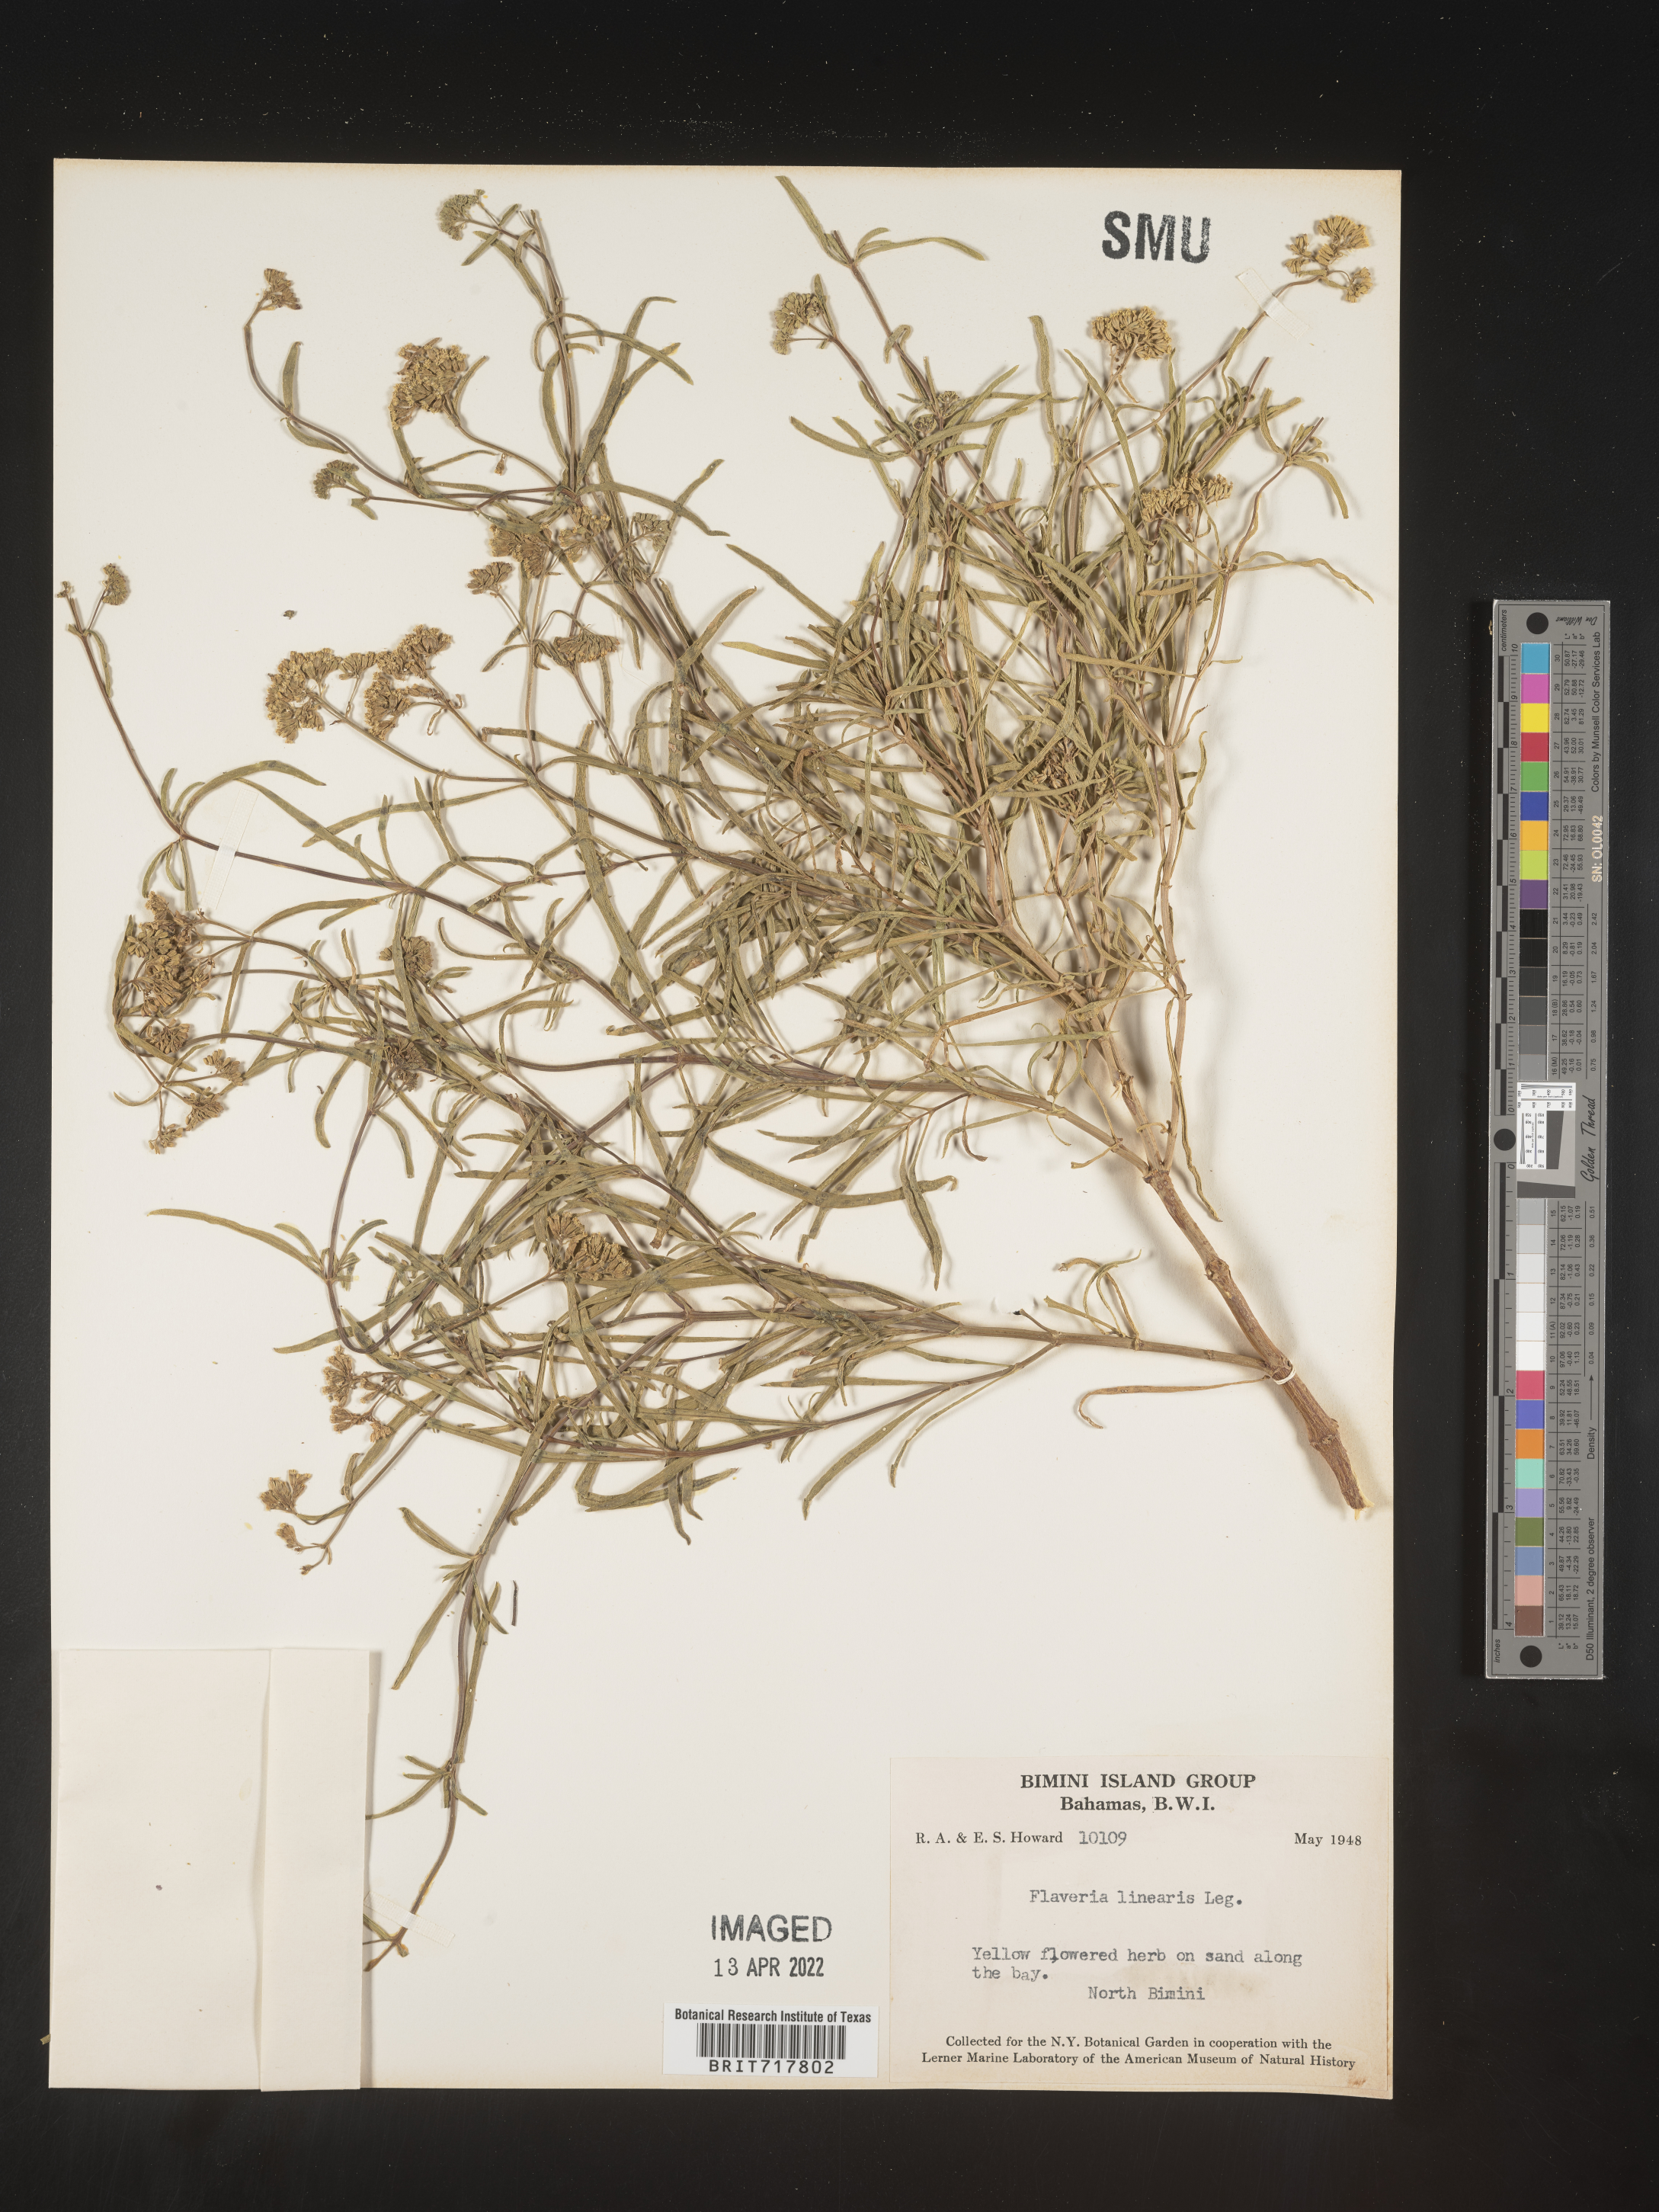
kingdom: Plantae
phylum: Tracheophyta
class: Magnoliopsida
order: Asterales
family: Asteraceae
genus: Flaveria
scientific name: Flaveria
